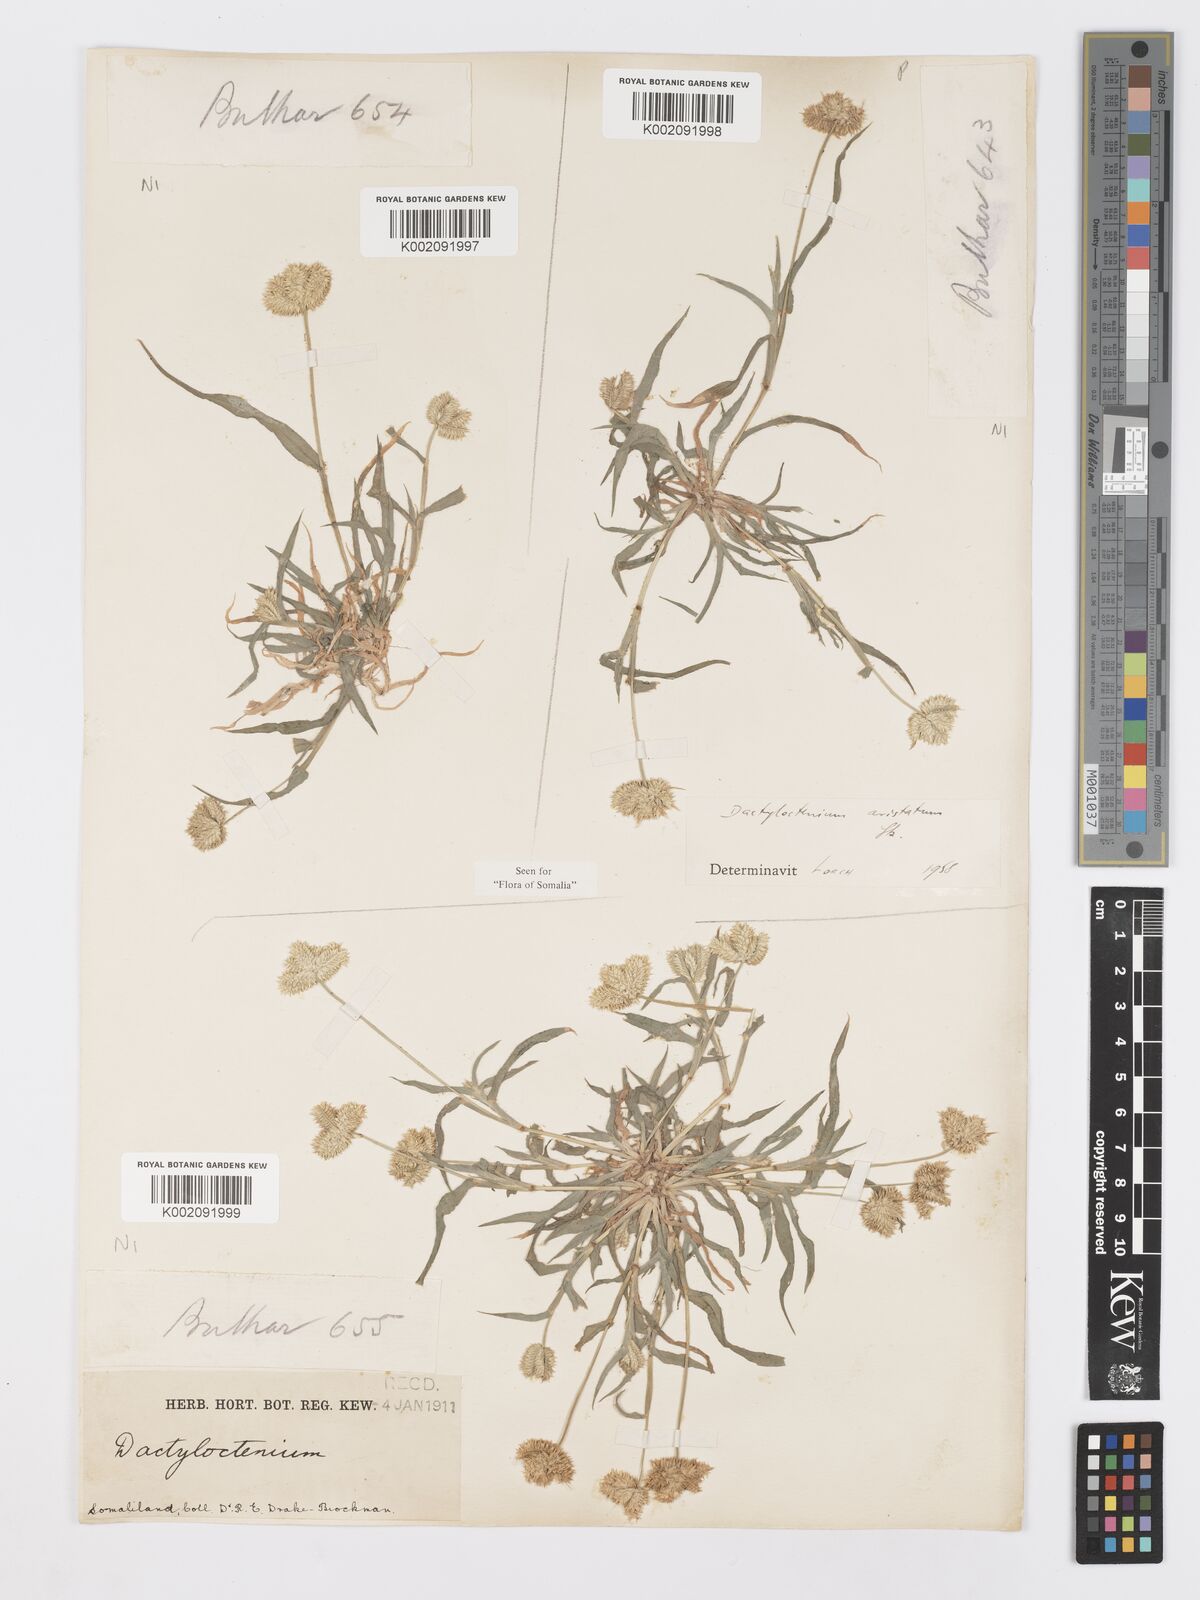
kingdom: Plantae
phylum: Tracheophyta
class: Liliopsida
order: Poales
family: Poaceae
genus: Dactyloctenium
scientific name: Dactyloctenium aristatum
